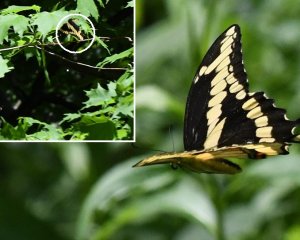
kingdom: Animalia
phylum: Arthropoda
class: Insecta
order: Lepidoptera
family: Papilionidae
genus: Papilio
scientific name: Papilio cresphontes
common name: Eastern Giant Swallowtail
